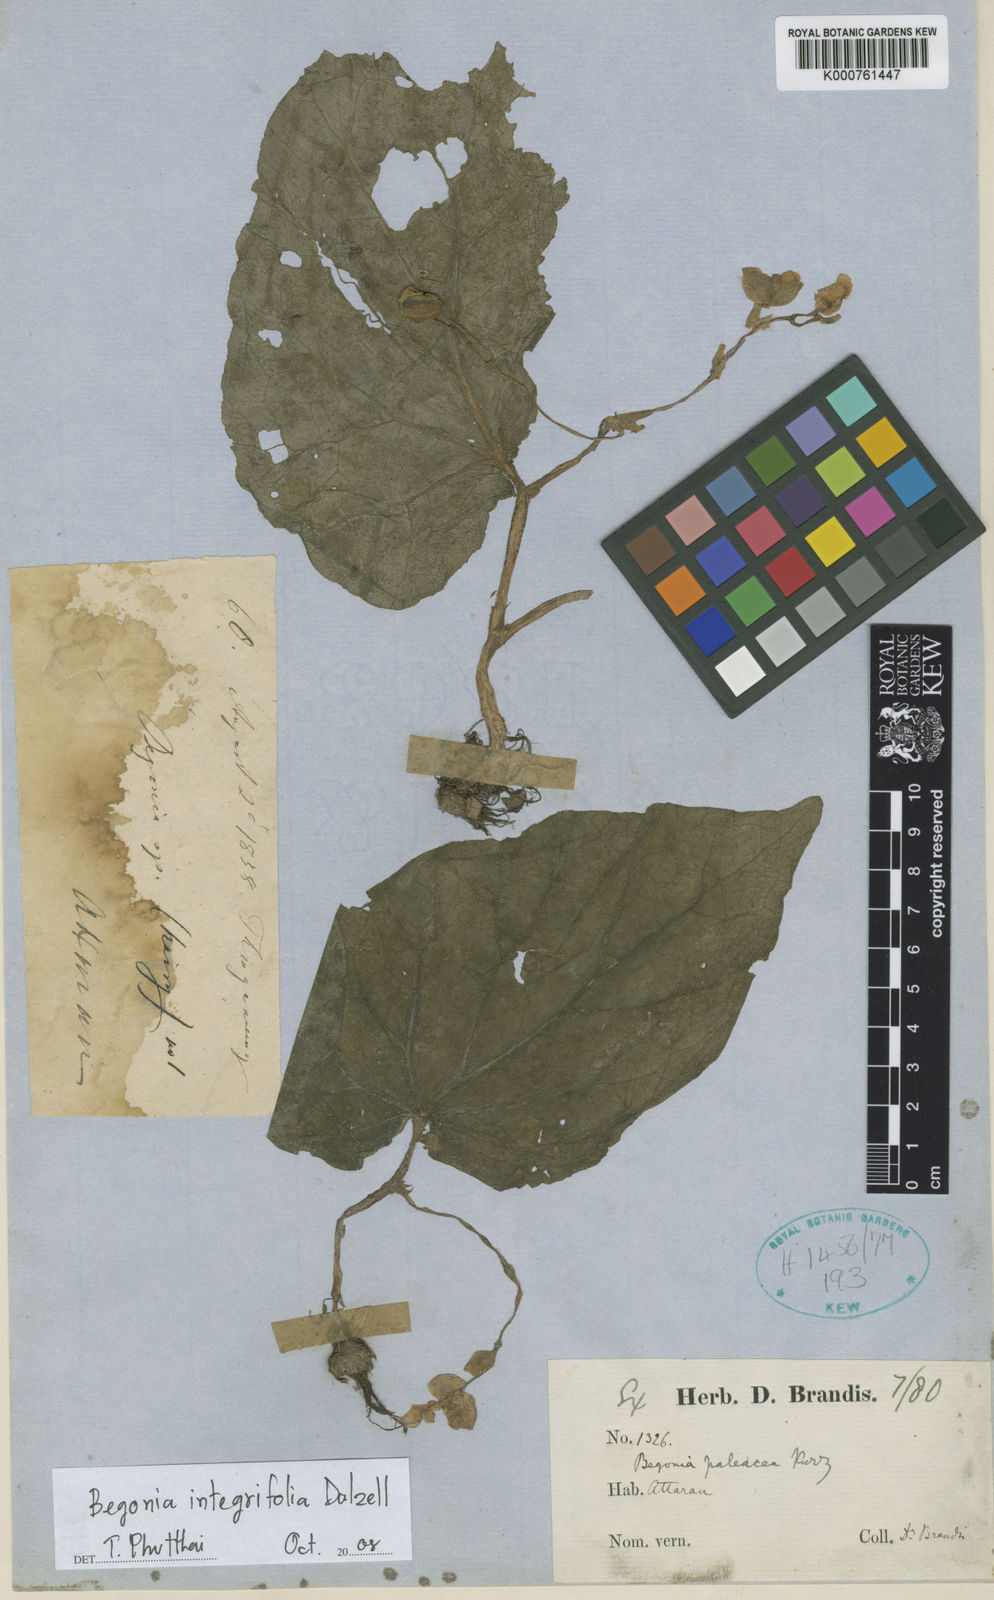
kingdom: Plantae
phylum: Tracheophyta
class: Magnoliopsida
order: Cucurbitales
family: Begoniaceae
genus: Begonia
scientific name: Begonia paleacea
